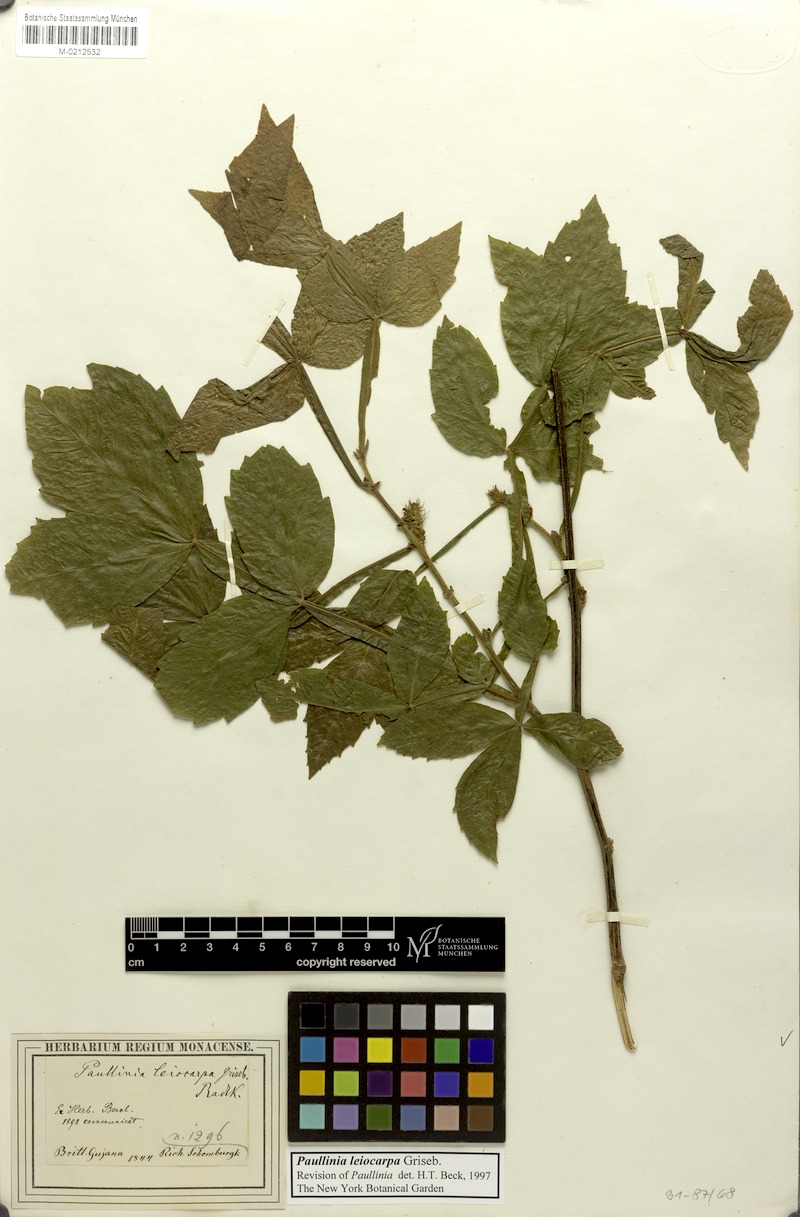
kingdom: Plantae
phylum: Tracheophyta
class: Magnoliopsida
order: Sapindales
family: Sapindaceae
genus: Paullinia
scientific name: Paullinia leiocarpa
